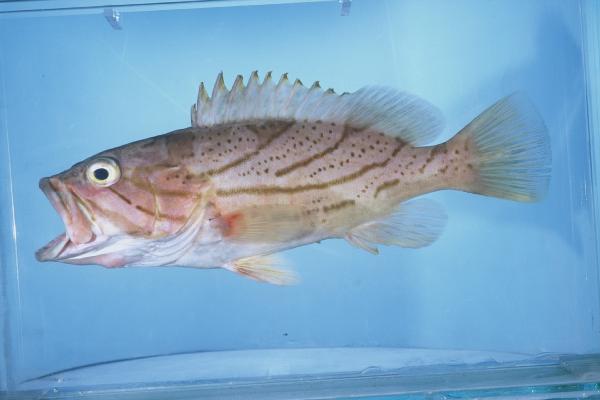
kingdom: Animalia
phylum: Chordata
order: Perciformes
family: Serranidae
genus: Epinephelus
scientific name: Epinephelus morrhua
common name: Comet grouper
